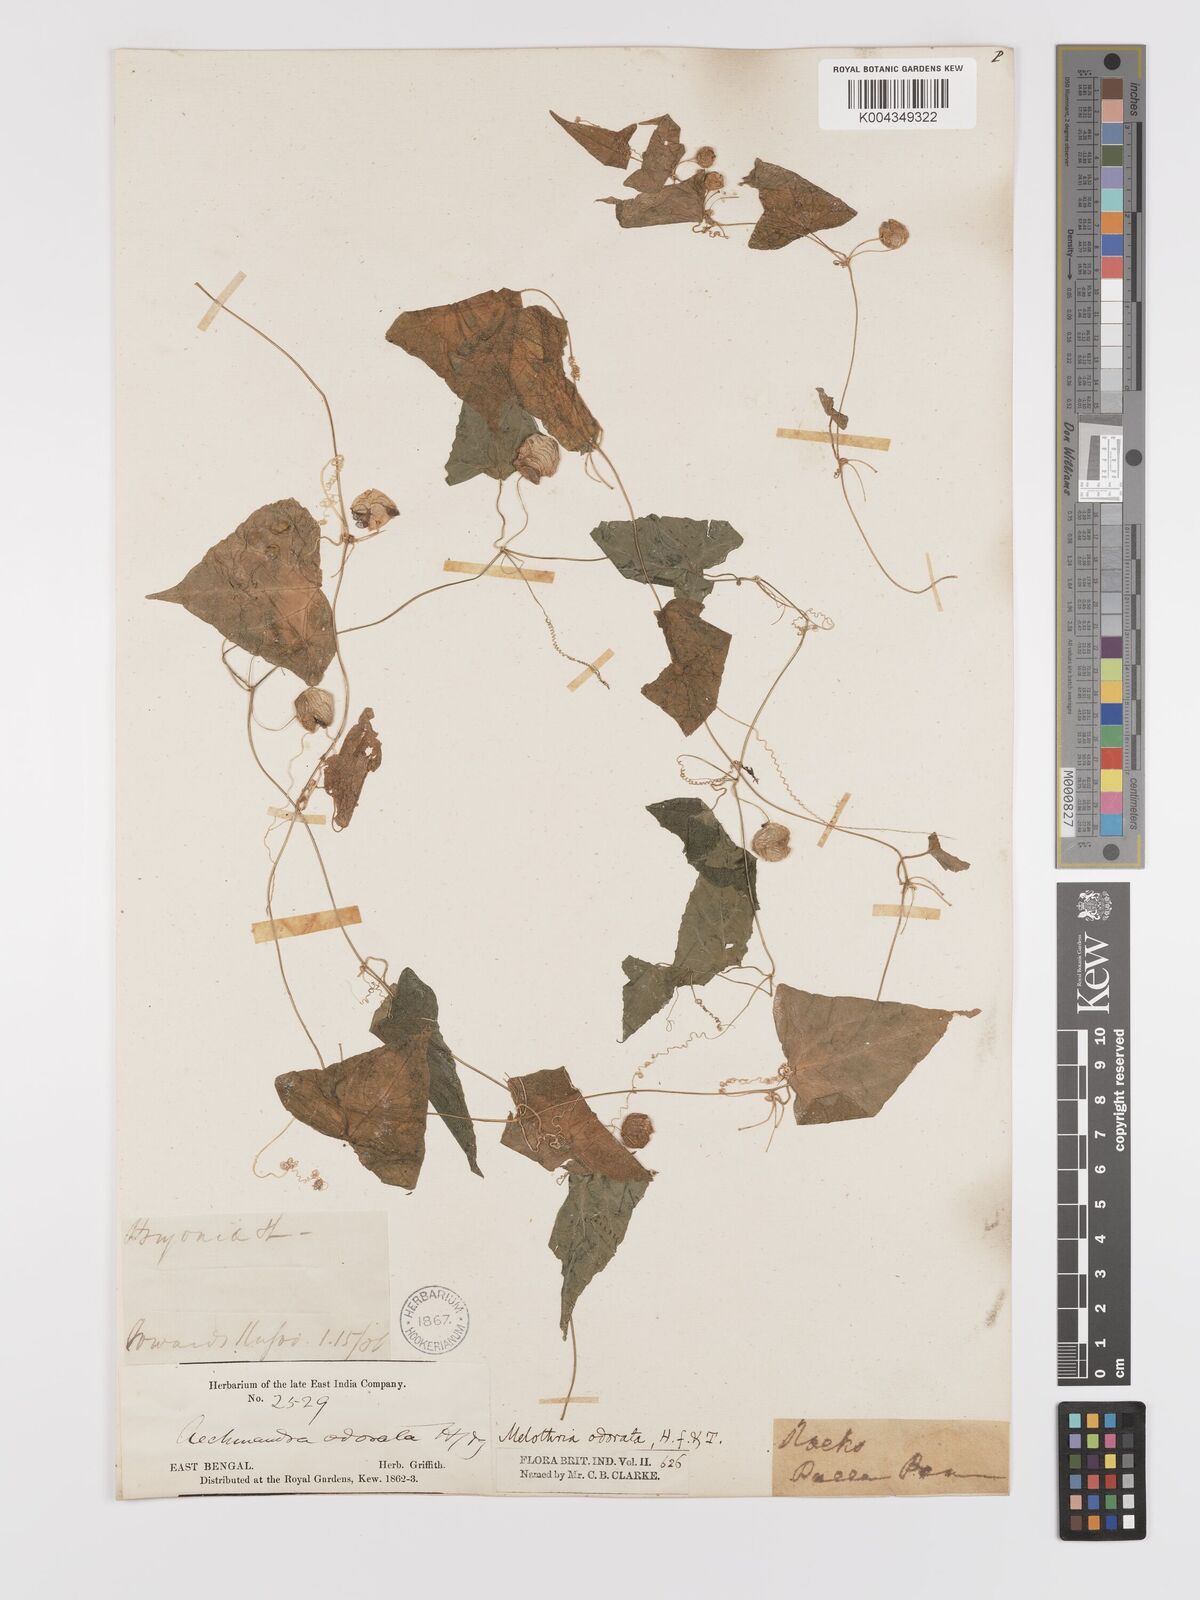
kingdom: Plantae
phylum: Tracheophyta
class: Magnoliopsida
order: Cucurbitales
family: Cucurbitaceae
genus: Zehneria
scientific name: Zehneria odorata
